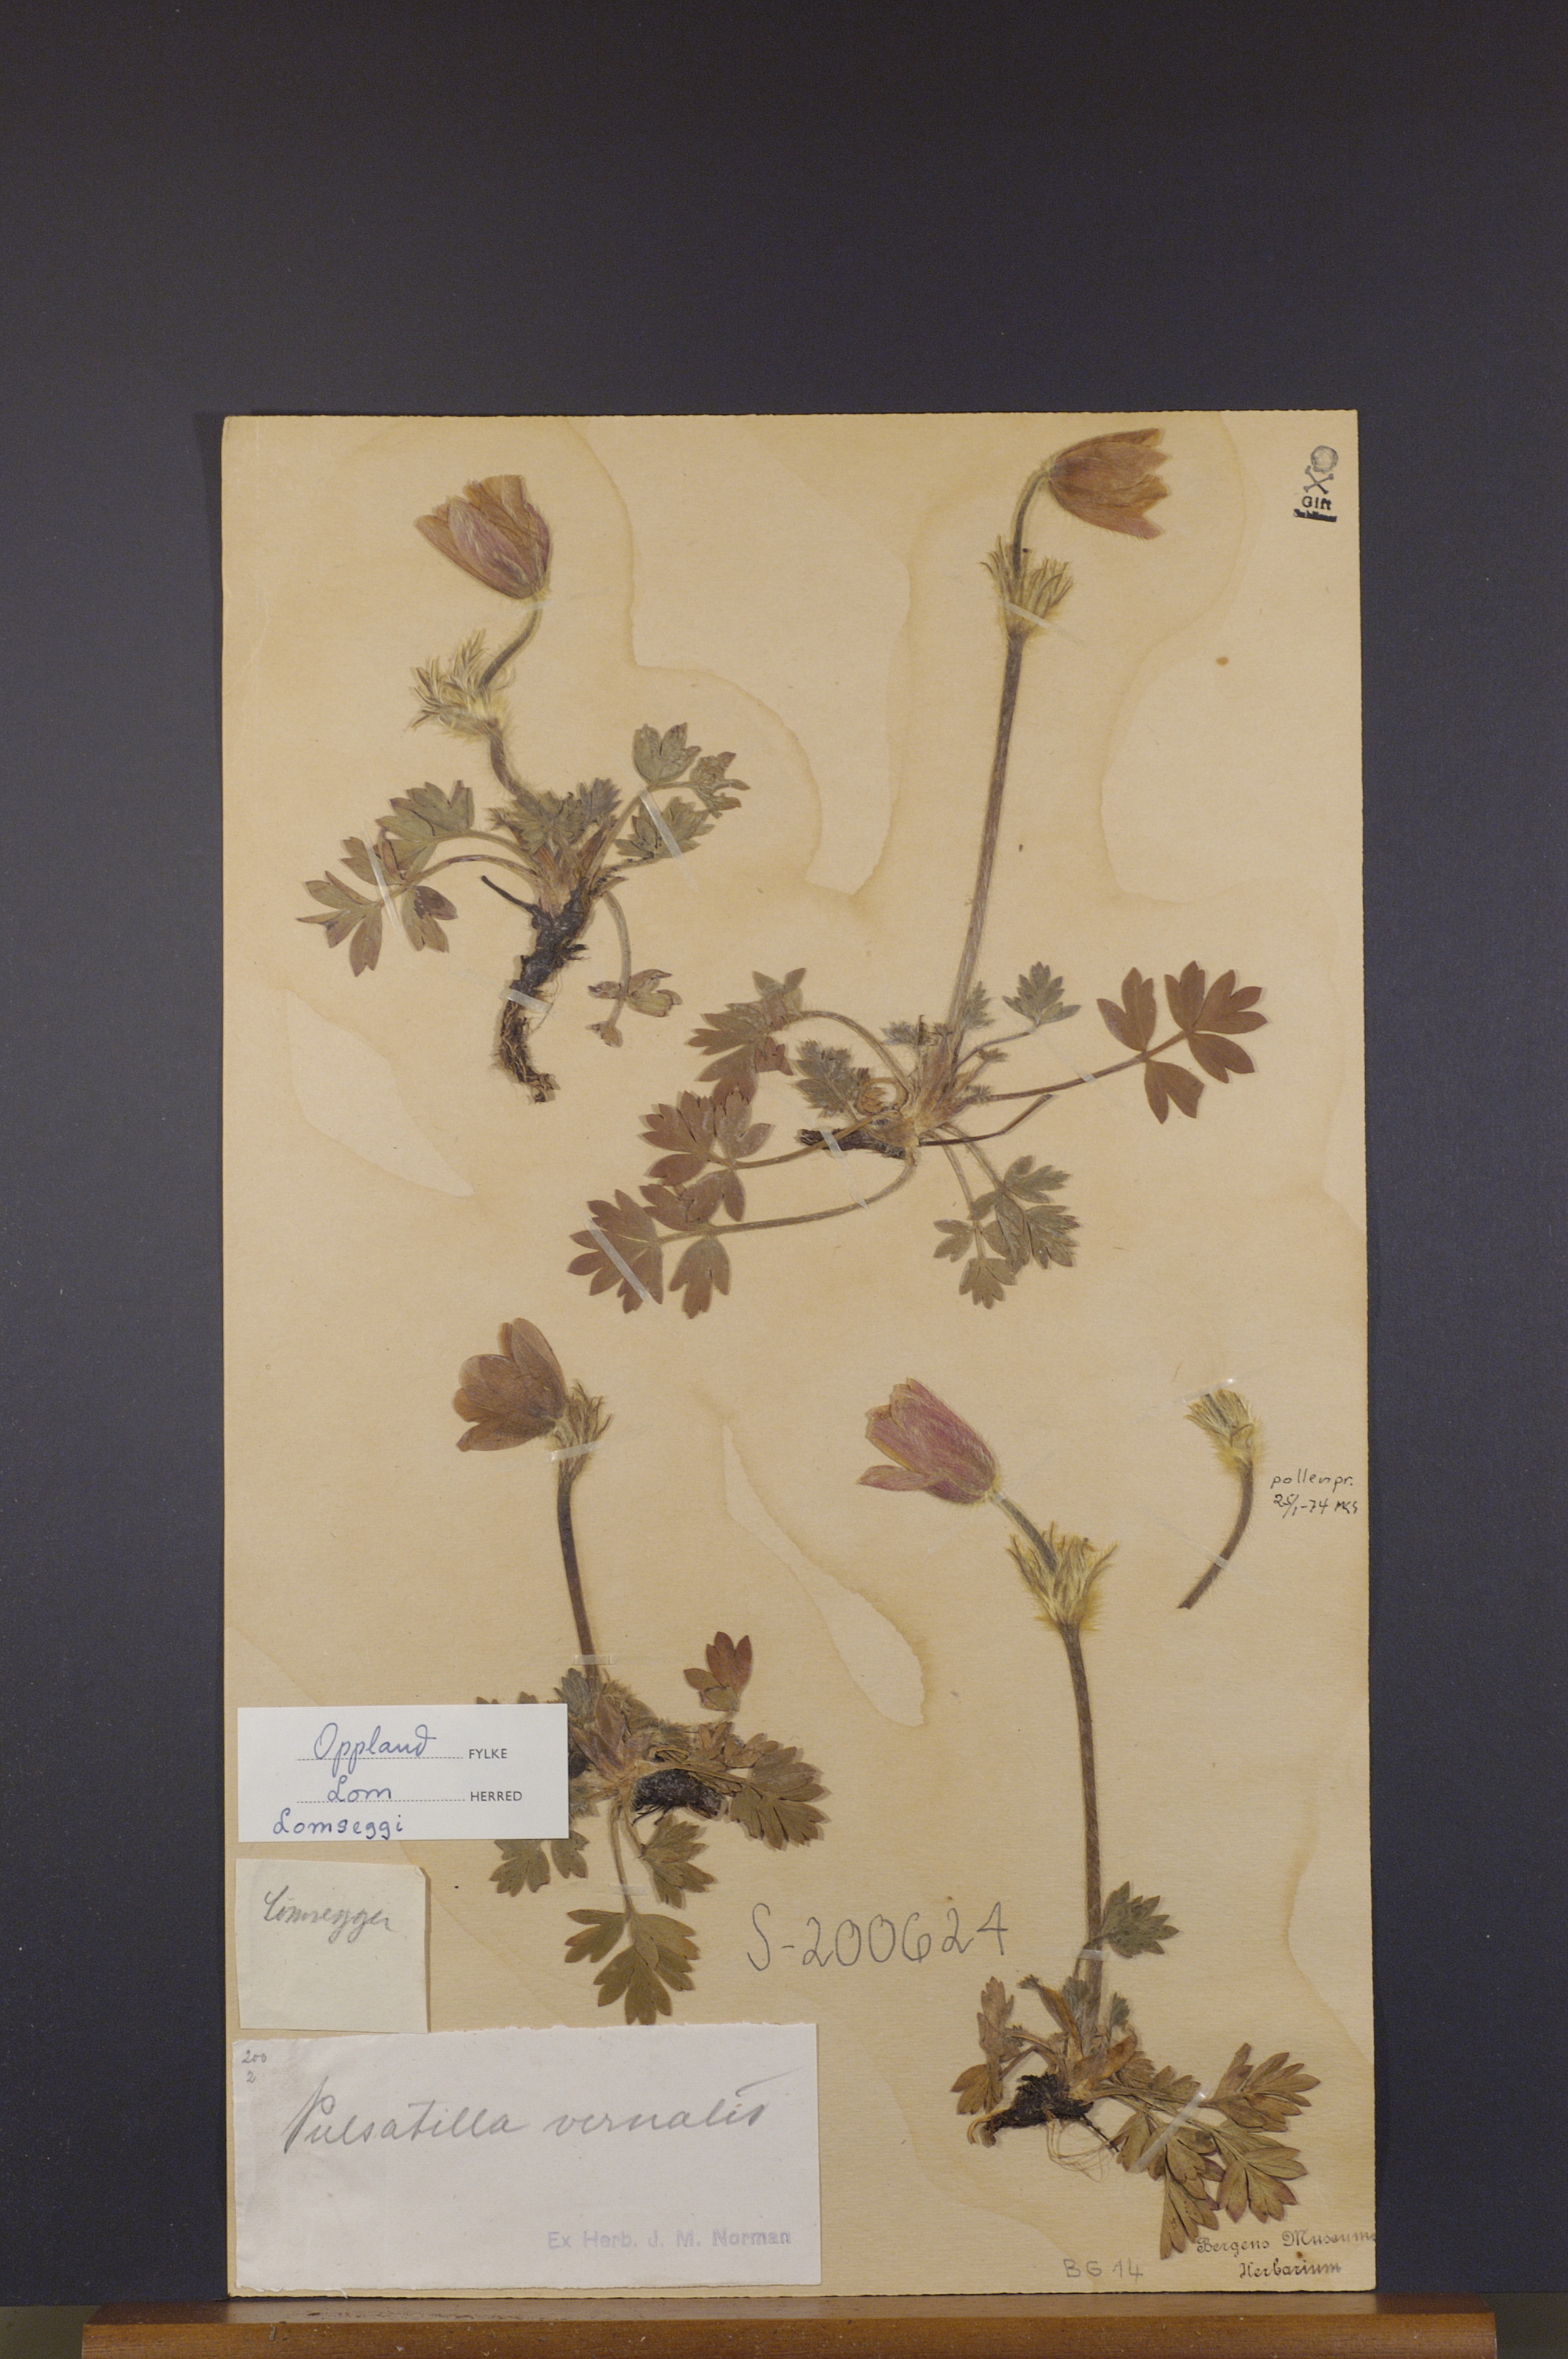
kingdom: Plantae
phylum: Tracheophyta
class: Magnoliopsida
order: Ranunculales
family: Ranunculaceae
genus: Pulsatilla
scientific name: Pulsatilla vernalis
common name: Spring pasque flower
